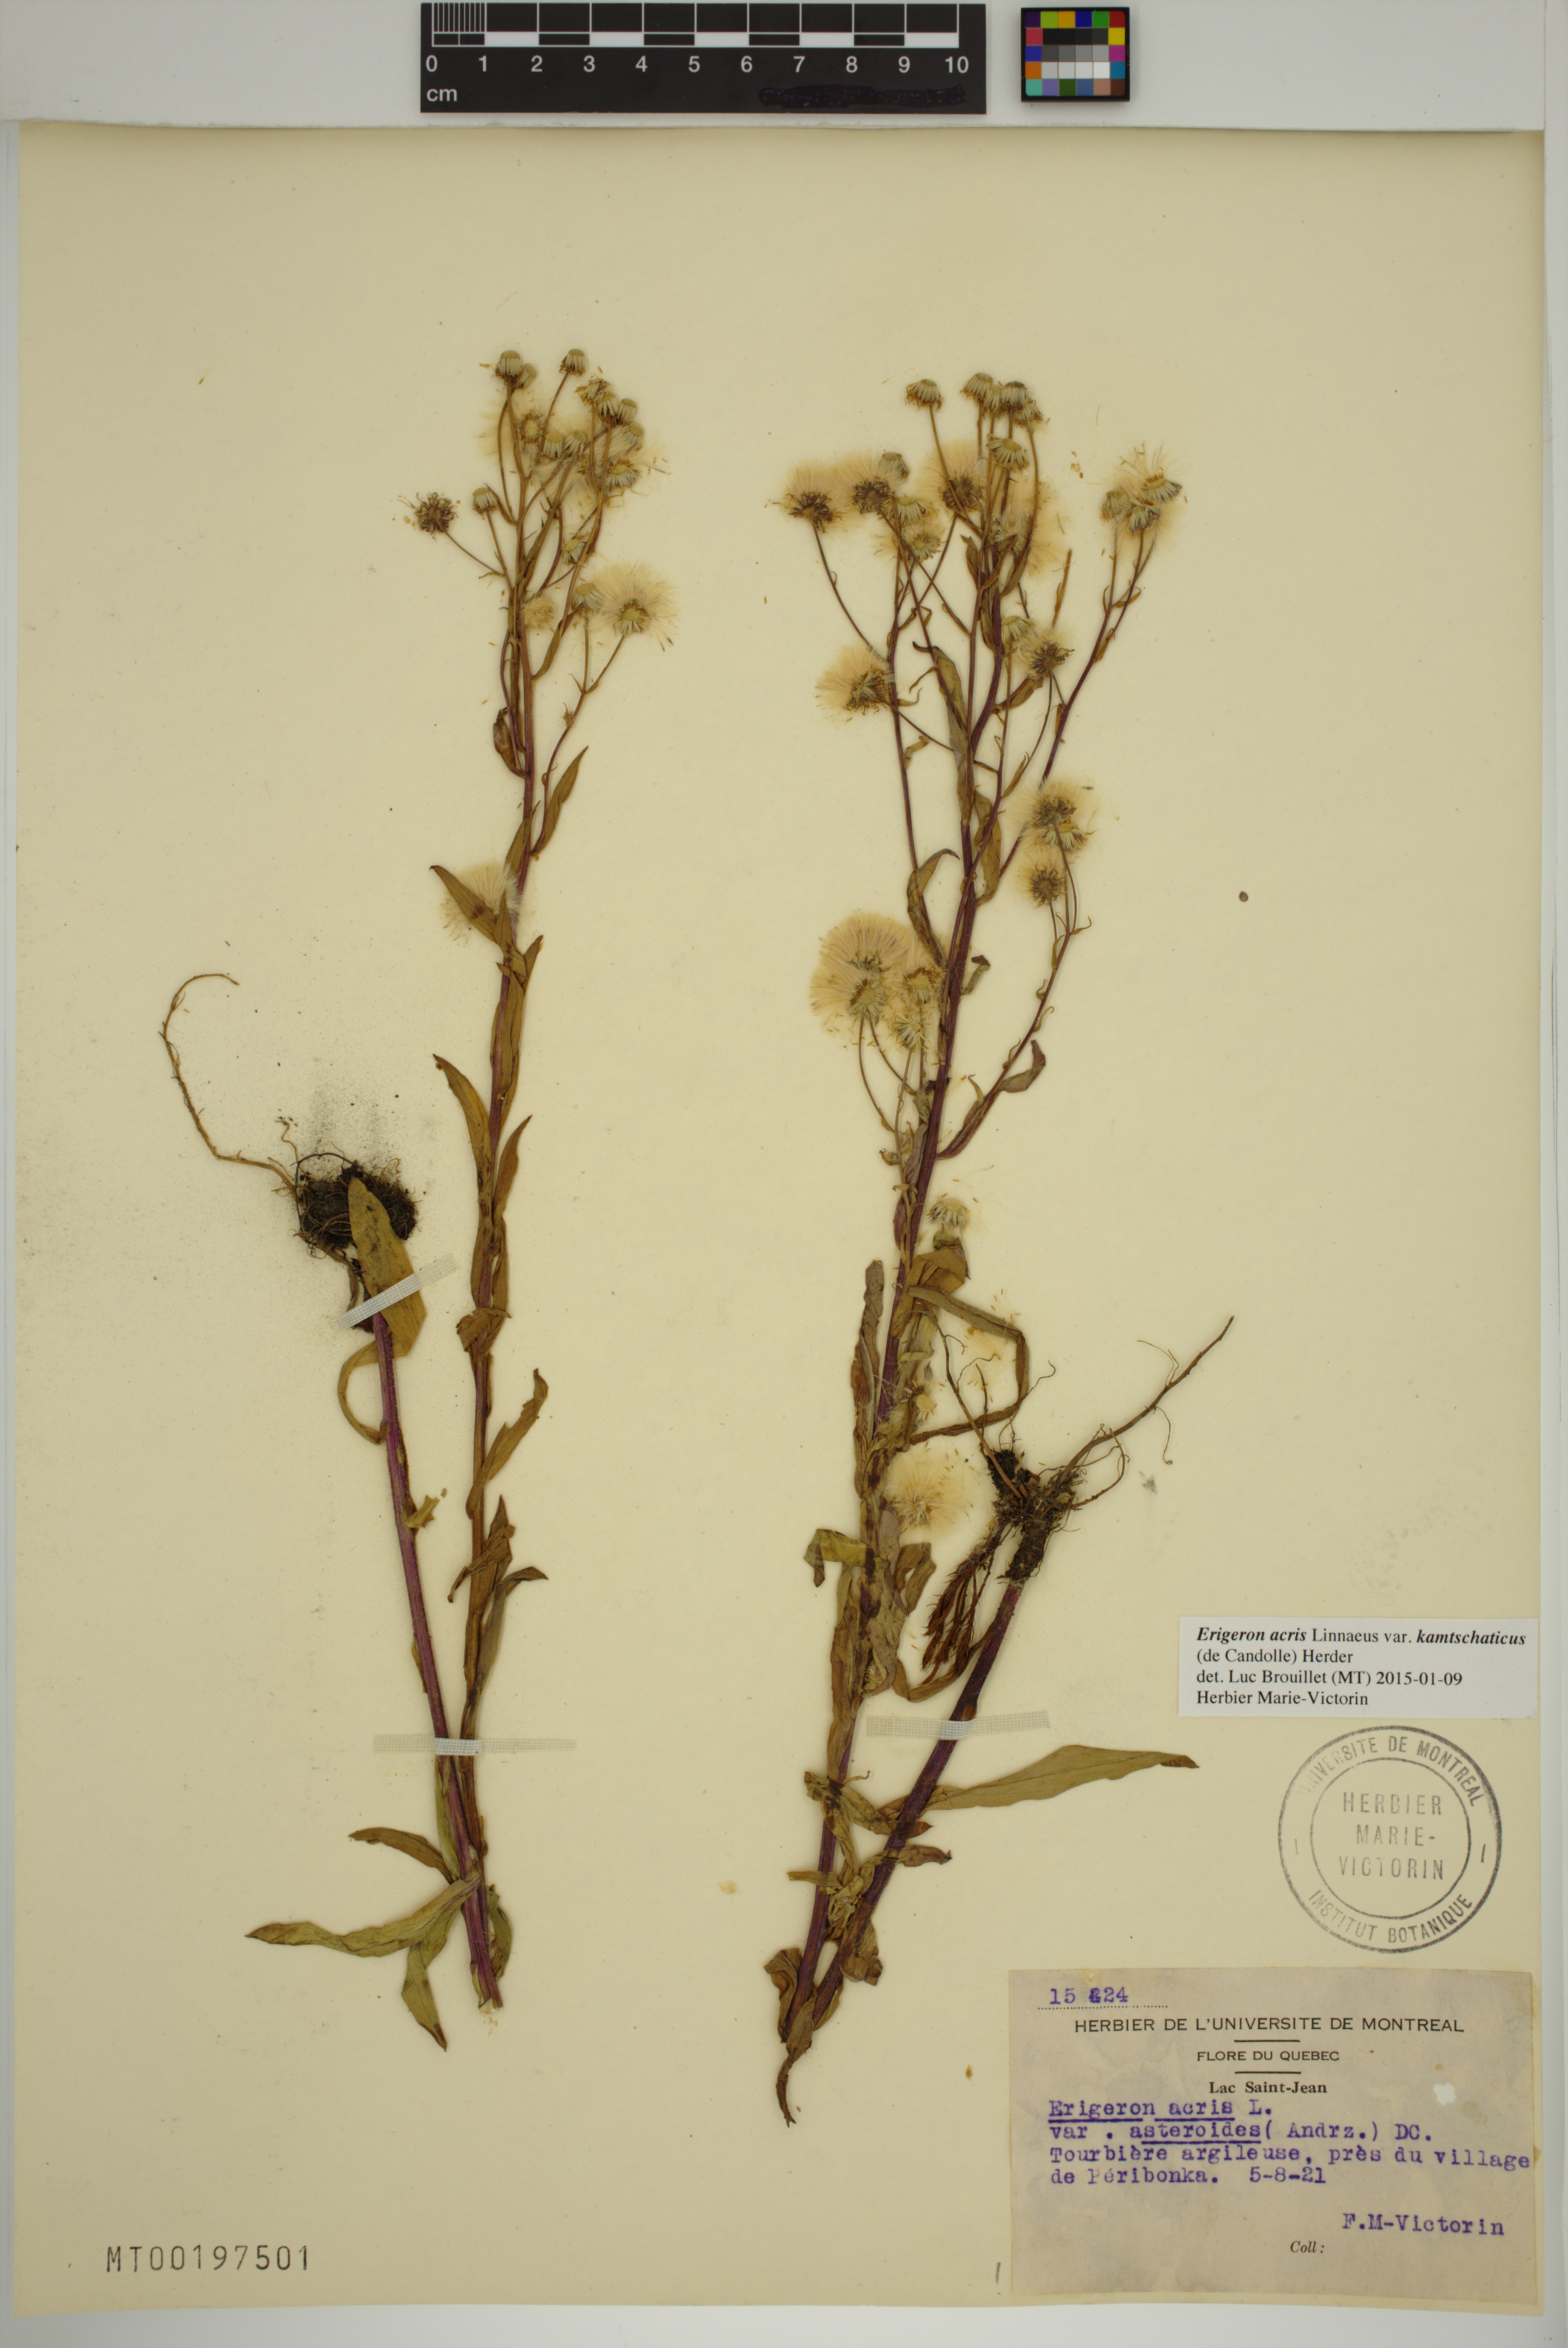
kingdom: Plantae
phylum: Tracheophyta
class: Magnoliopsida
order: Asterales
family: Asteraceae
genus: Erigeron
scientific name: Erigeron kamtschaticus
